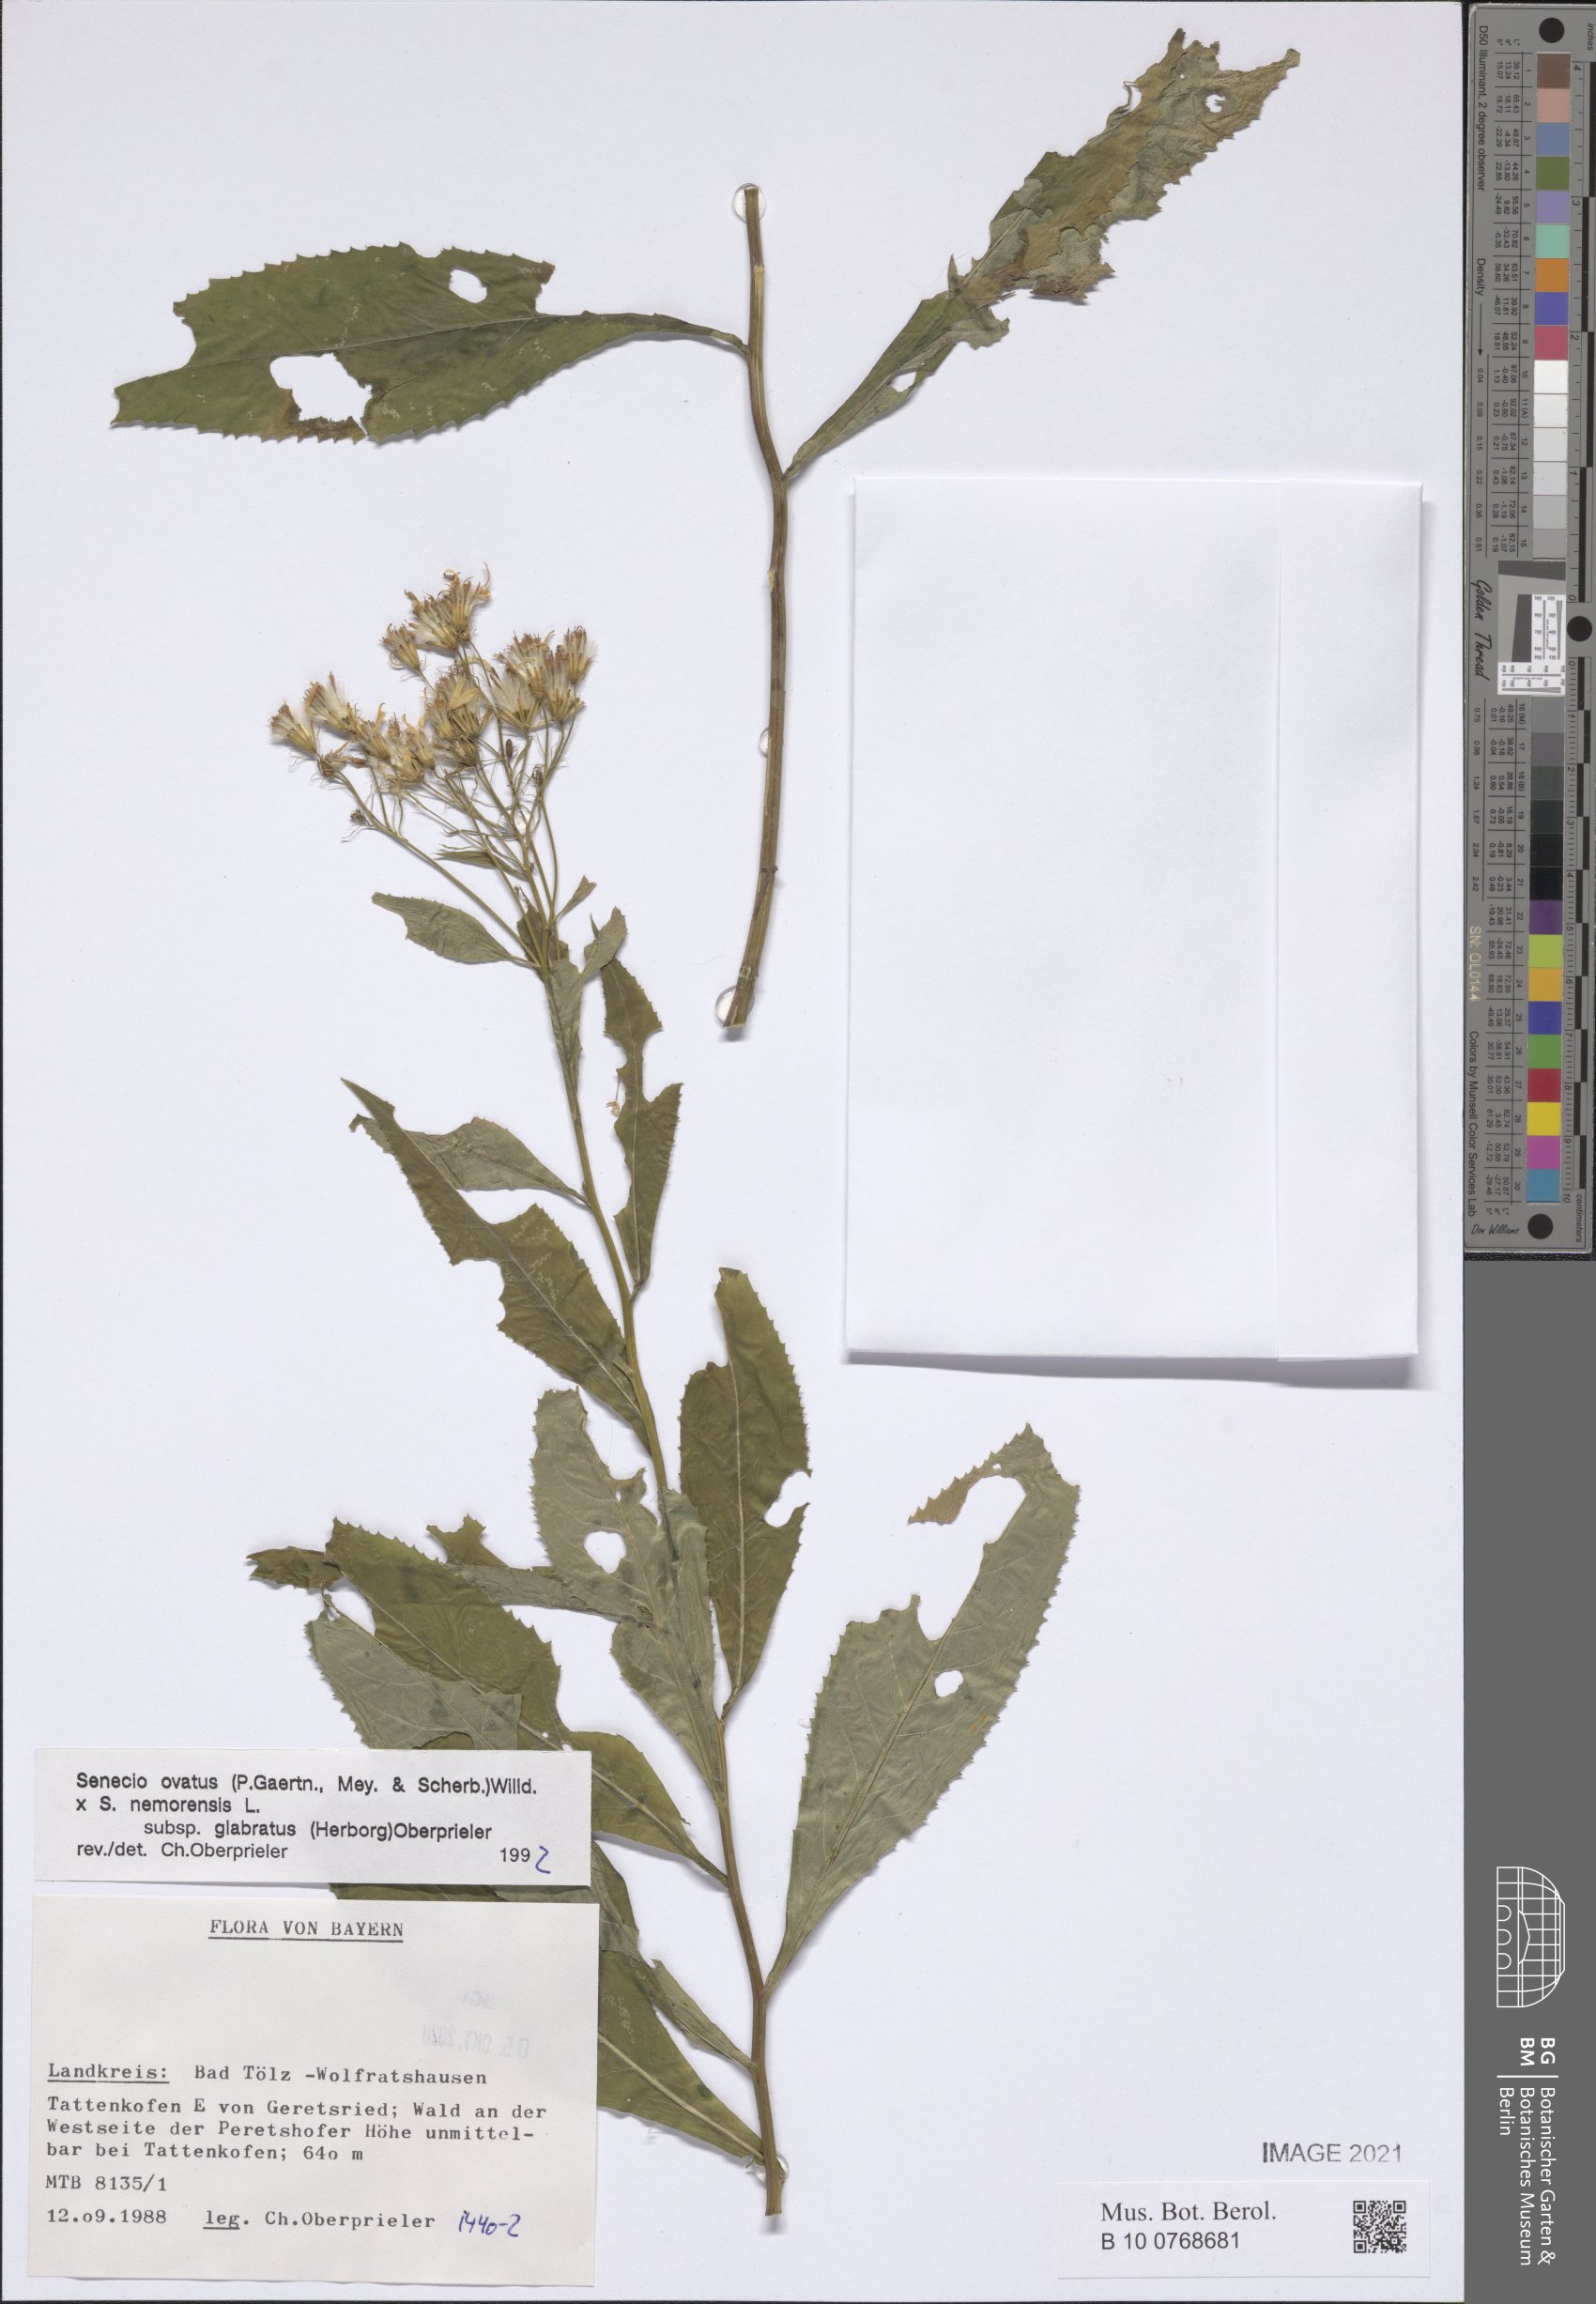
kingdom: Plantae
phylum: Tracheophyta
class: Magnoliopsida
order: Asterales
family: Asteraceae
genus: Senecio
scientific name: Senecio ovatus
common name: Wood ragwort
